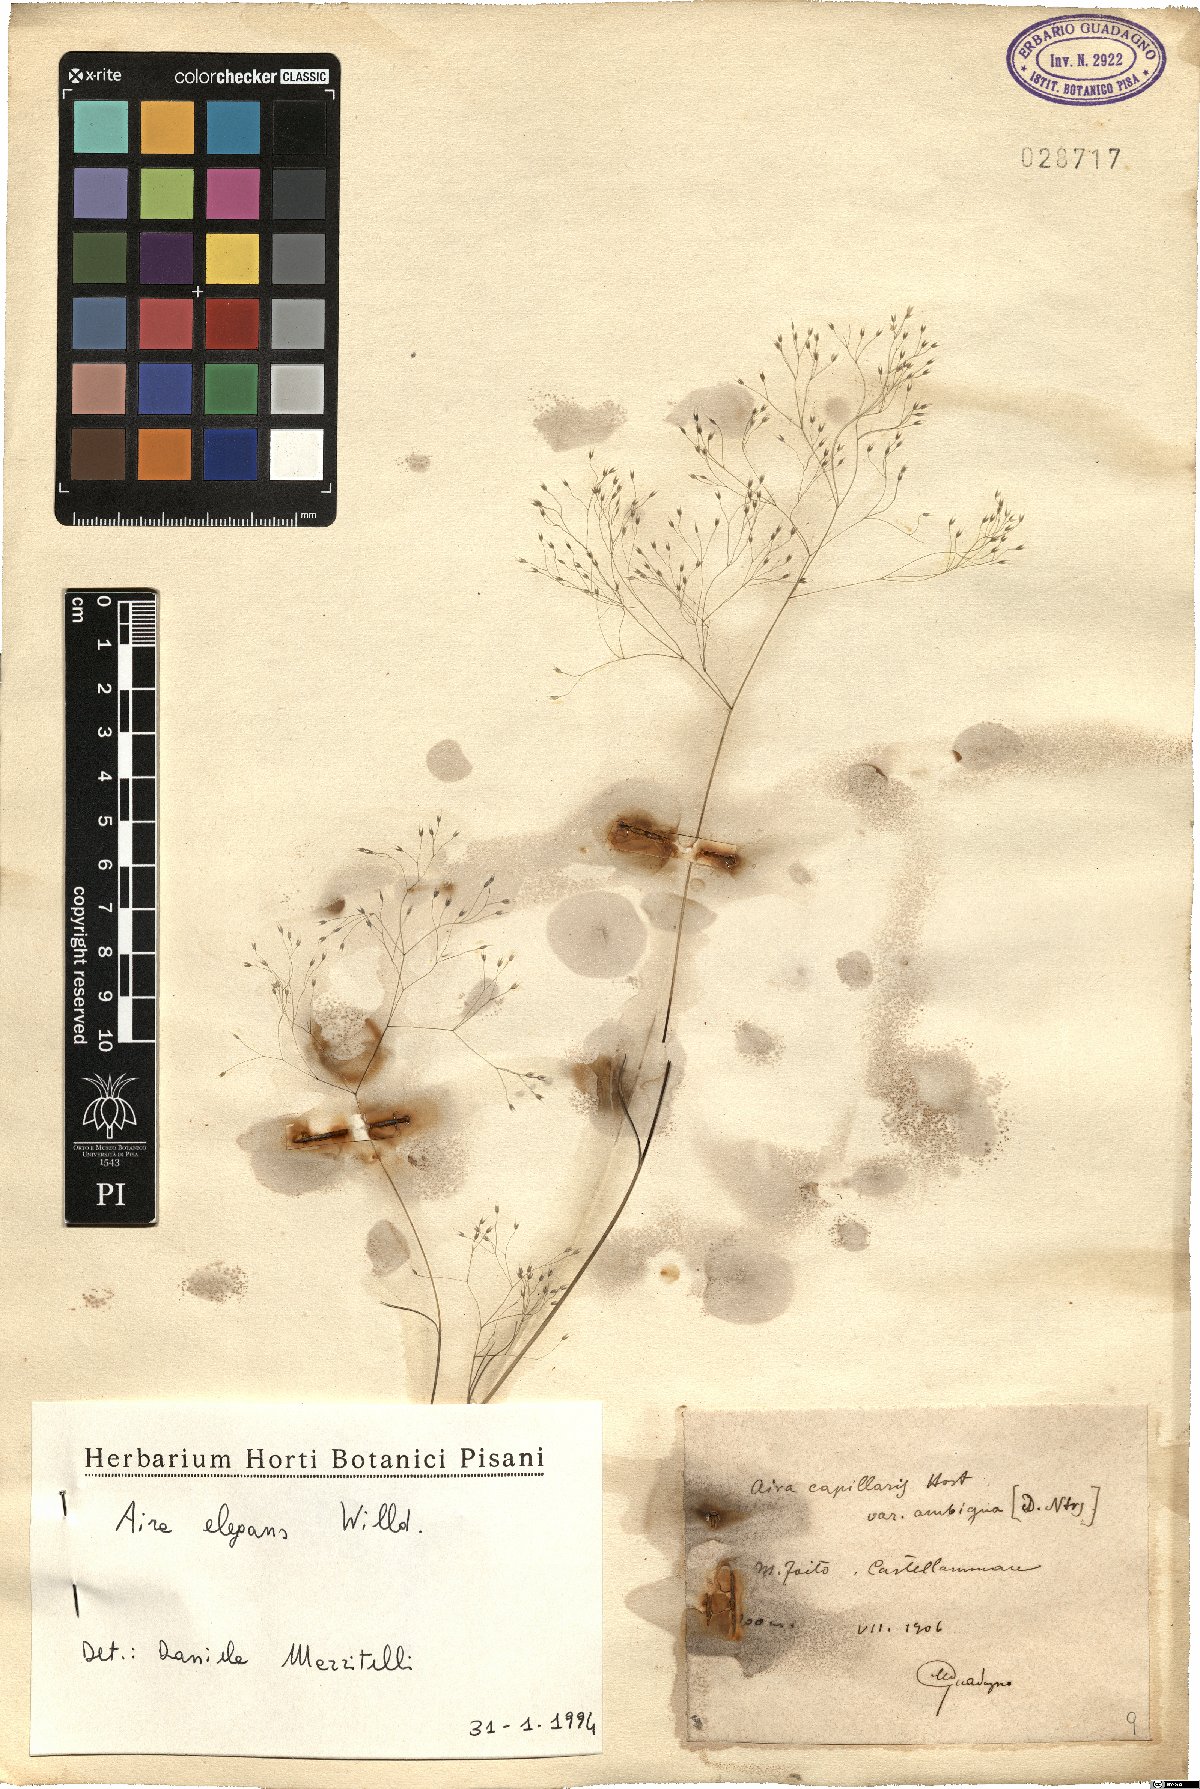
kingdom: Plantae
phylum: Tracheophyta
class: Liliopsida
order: Poales
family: Poaceae
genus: Aira
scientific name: Aira elegans
